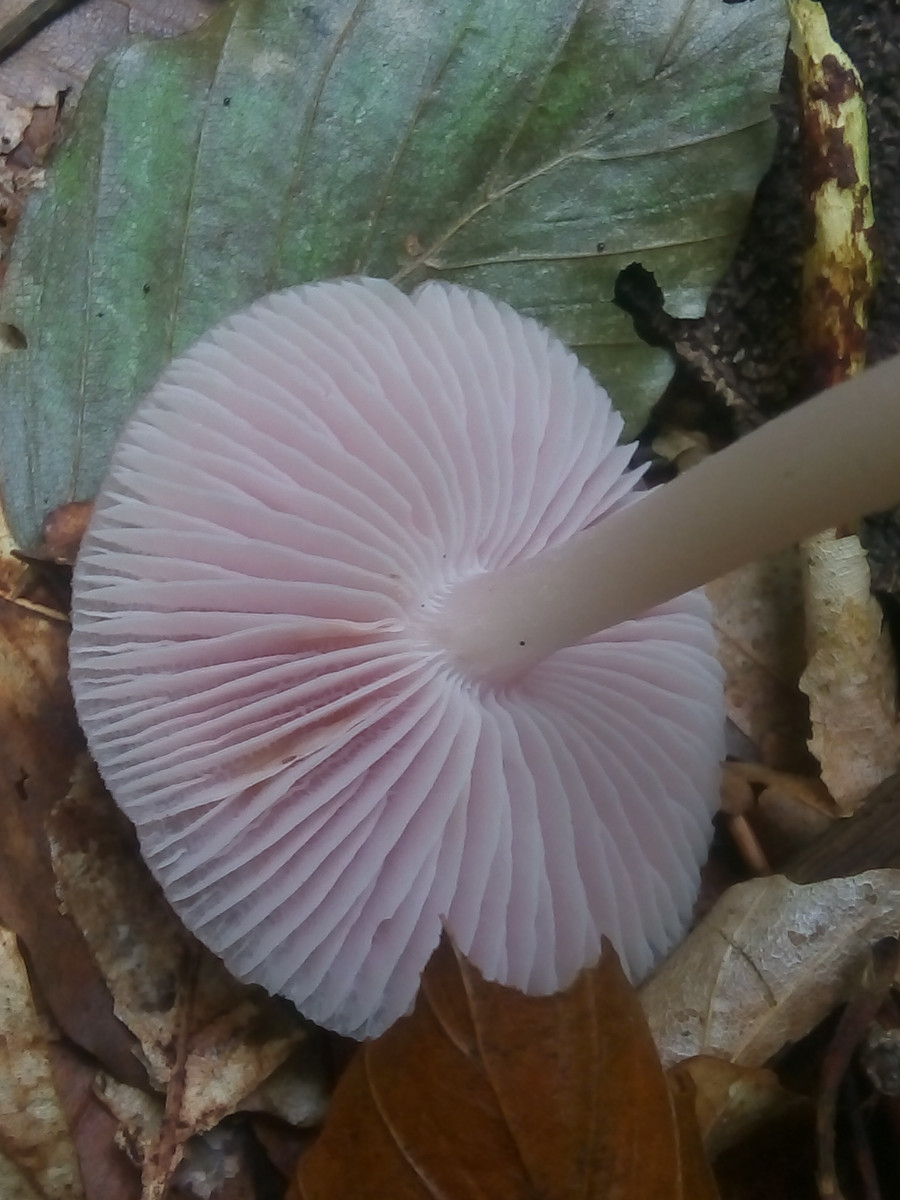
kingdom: Fungi
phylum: Basidiomycota
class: Agaricomycetes
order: Agaricales
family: Mycenaceae
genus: Mycena
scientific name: Mycena rosea
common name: rosa huesvamp
